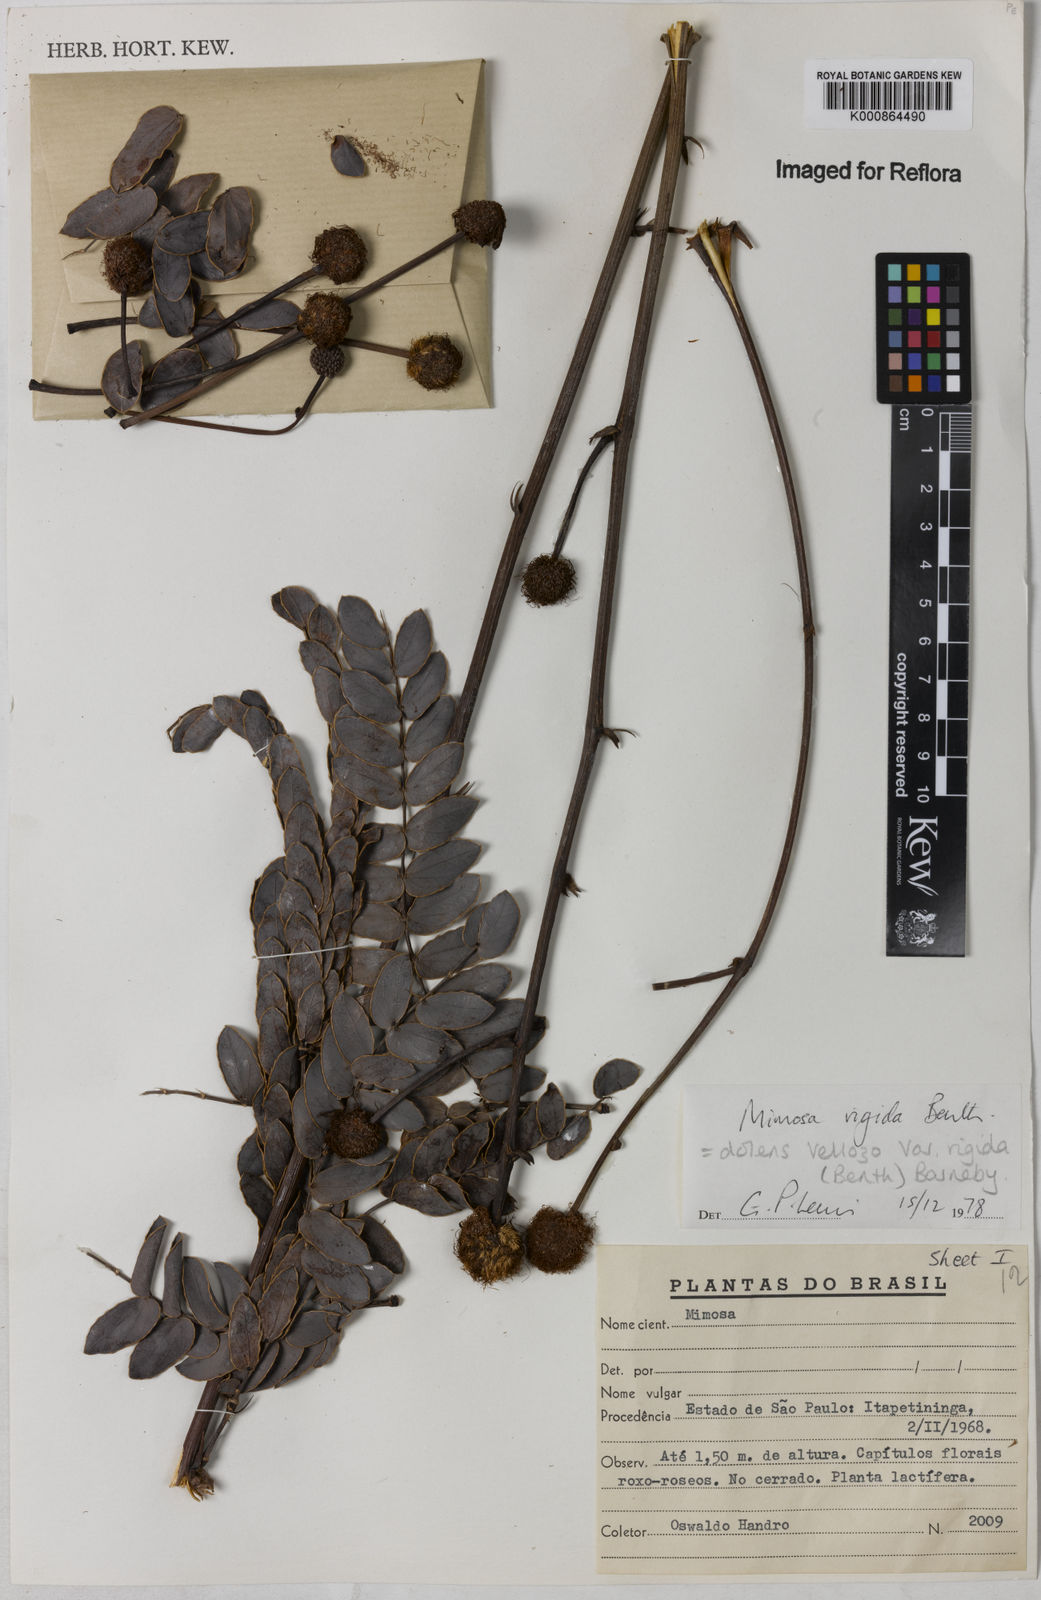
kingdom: Plantae
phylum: Tracheophyta
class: Magnoliopsida
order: Fabales
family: Fabaceae
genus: Mimosa
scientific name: Mimosa dolens
